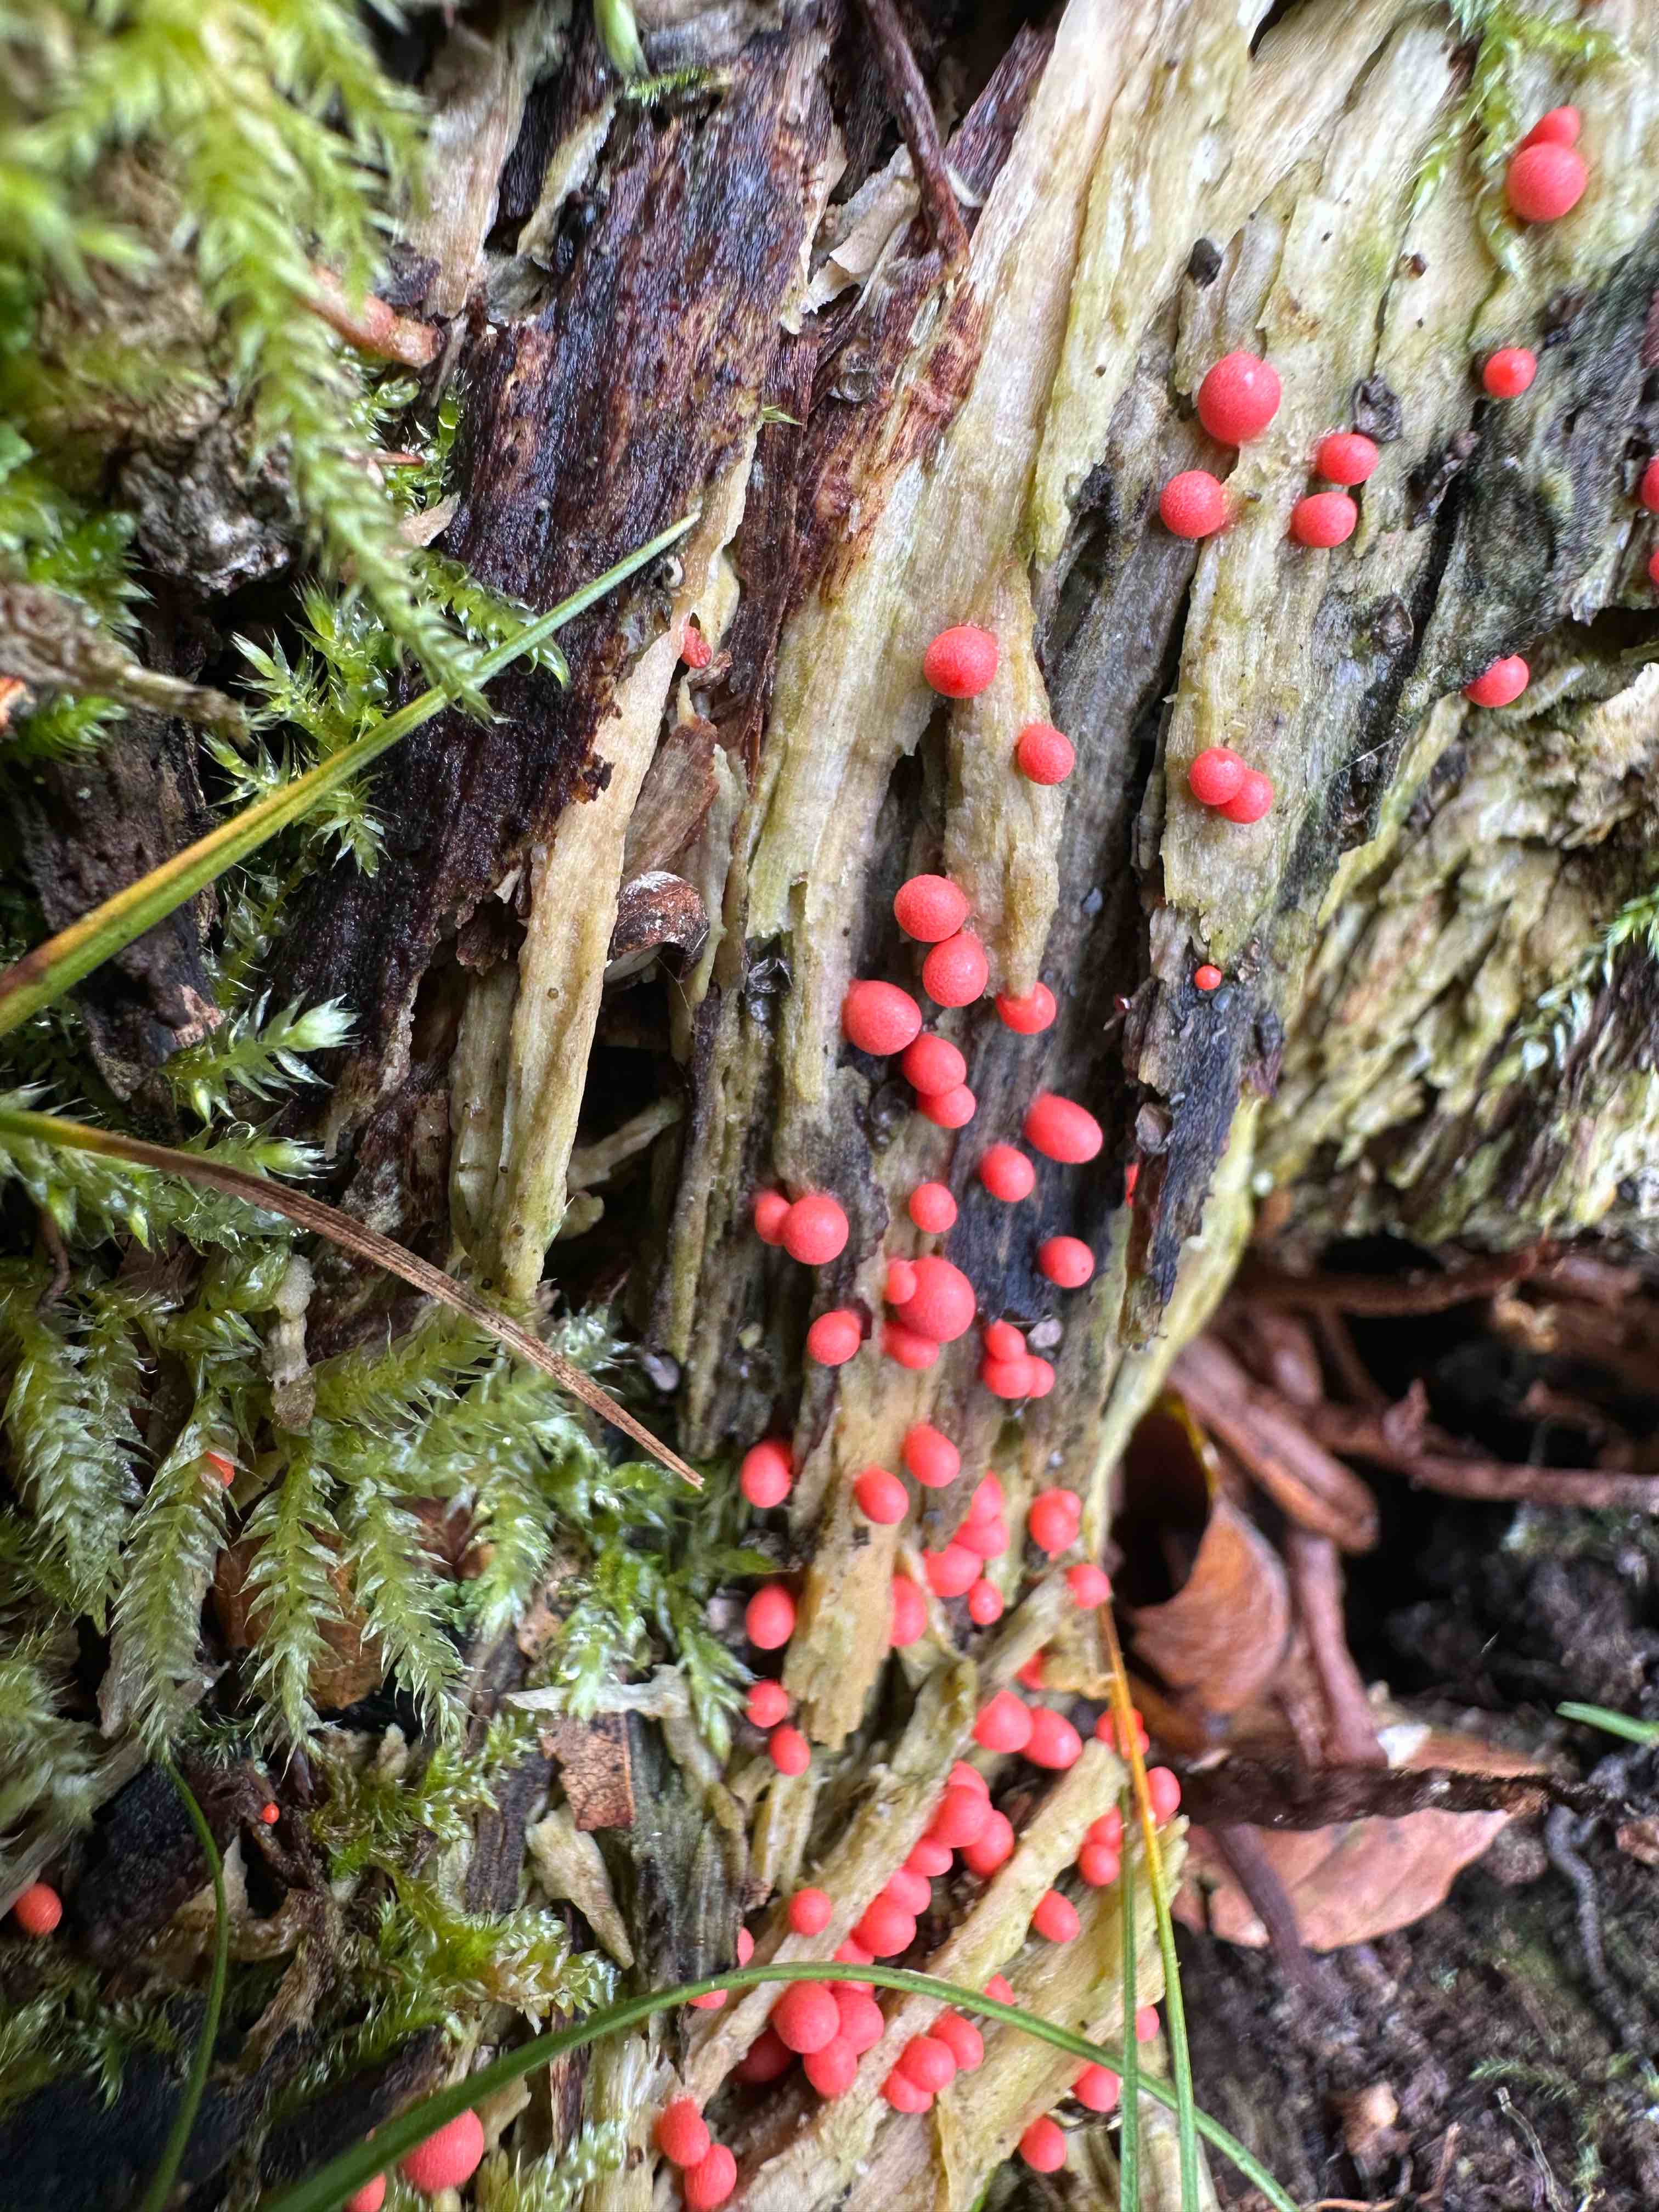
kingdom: Protozoa
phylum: Mycetozoa
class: Myxomycetes
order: Cribrariales
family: Tubiferaceae
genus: Lycogala
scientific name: Lycogala
